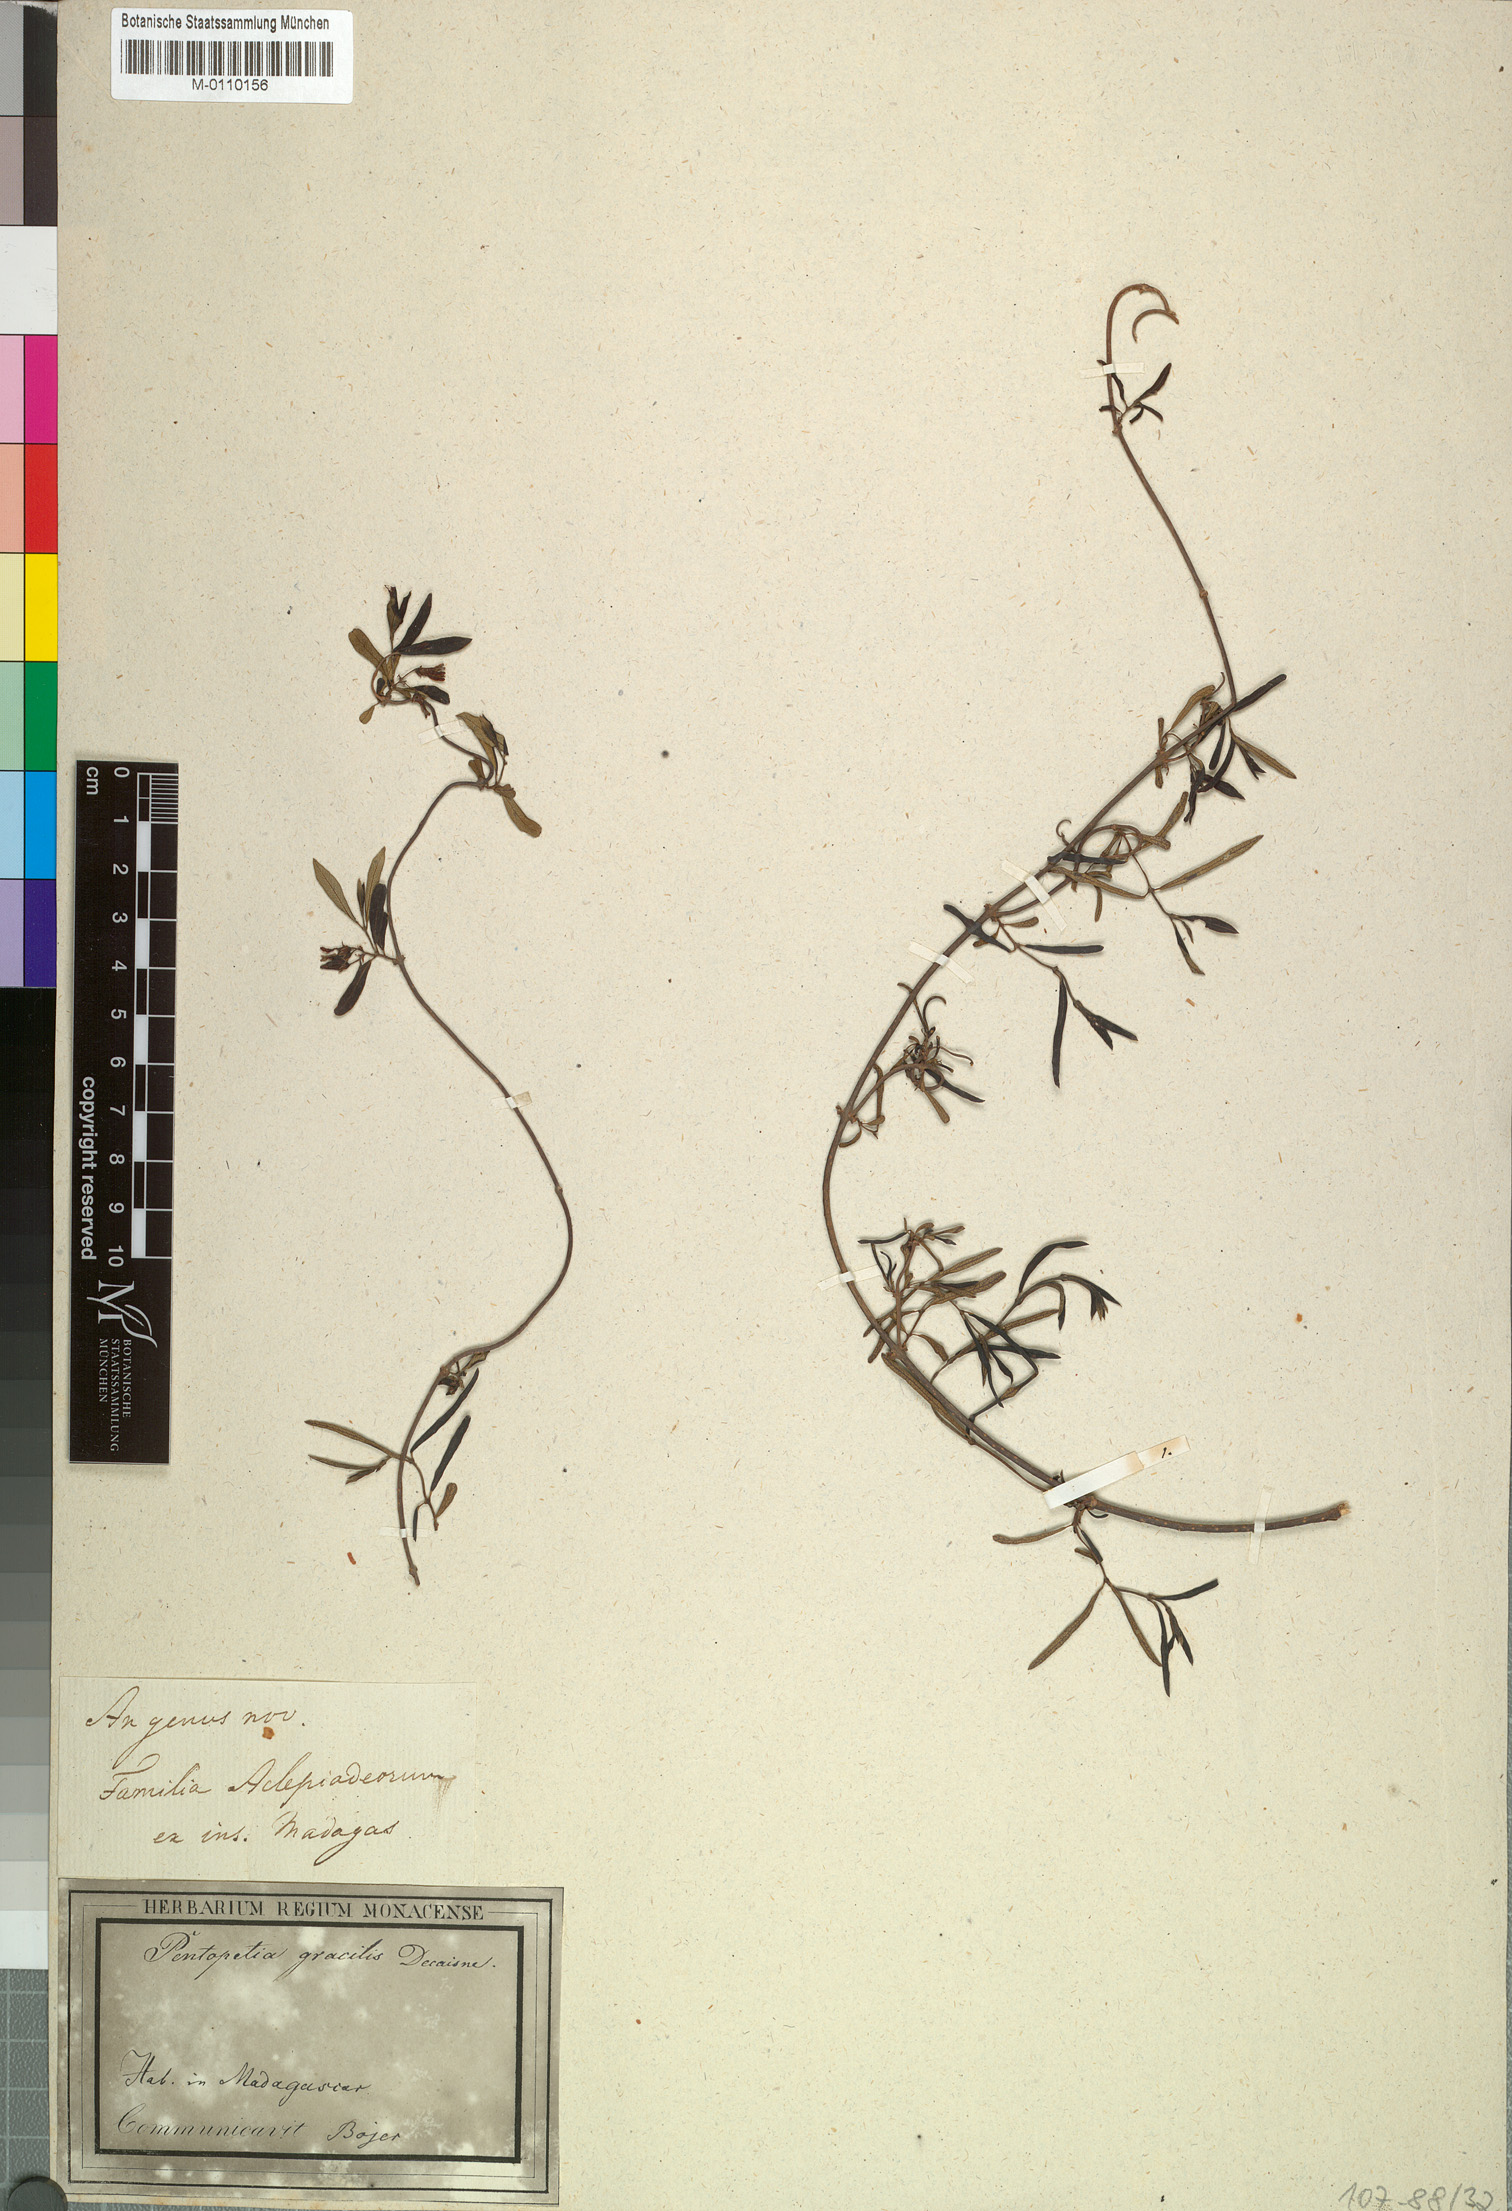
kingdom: Plantae
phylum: Tracheophyta
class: Magnoliopsida
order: Gentianales
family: Apocynaceae
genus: Pentopetia
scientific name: Pentopetia androsaemifolia
